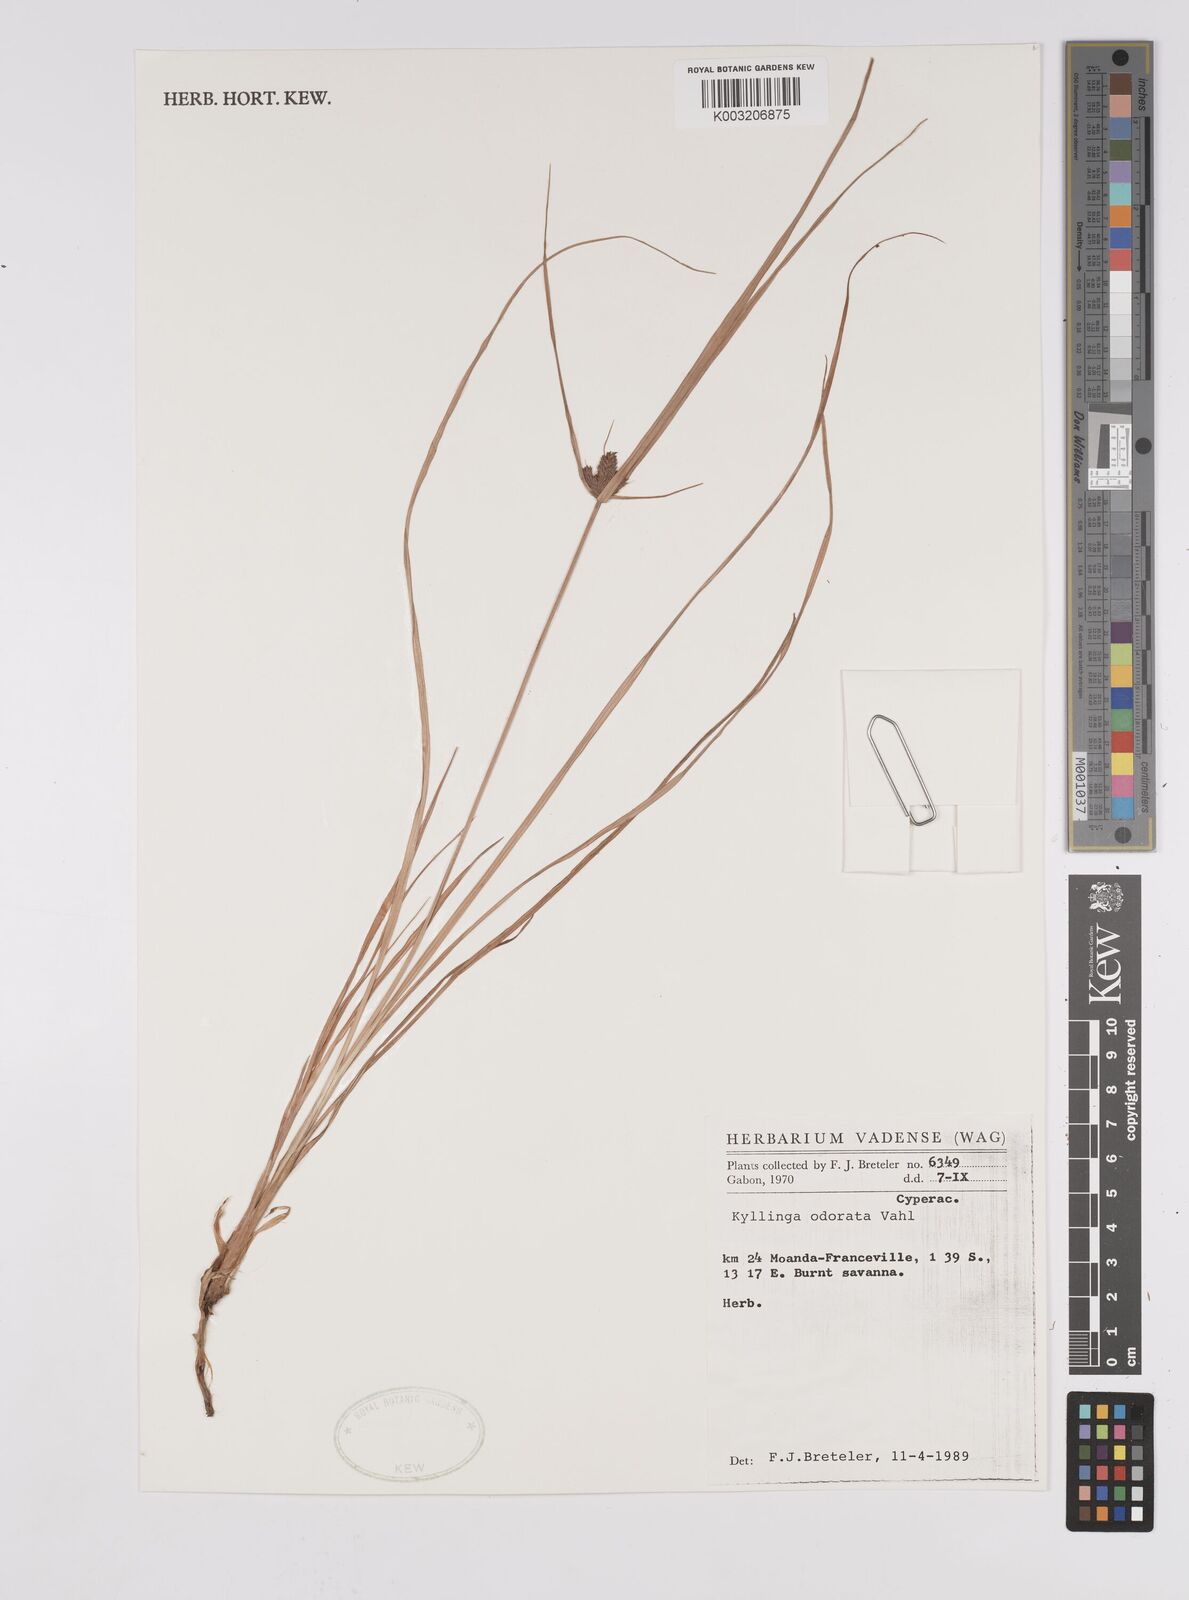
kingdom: Plantae
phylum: Tracheophyta
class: Liliopsida
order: Poales
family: Cyperaceae
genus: Cyperus
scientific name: Cyperus odoratus
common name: Fragrant flatsedge
